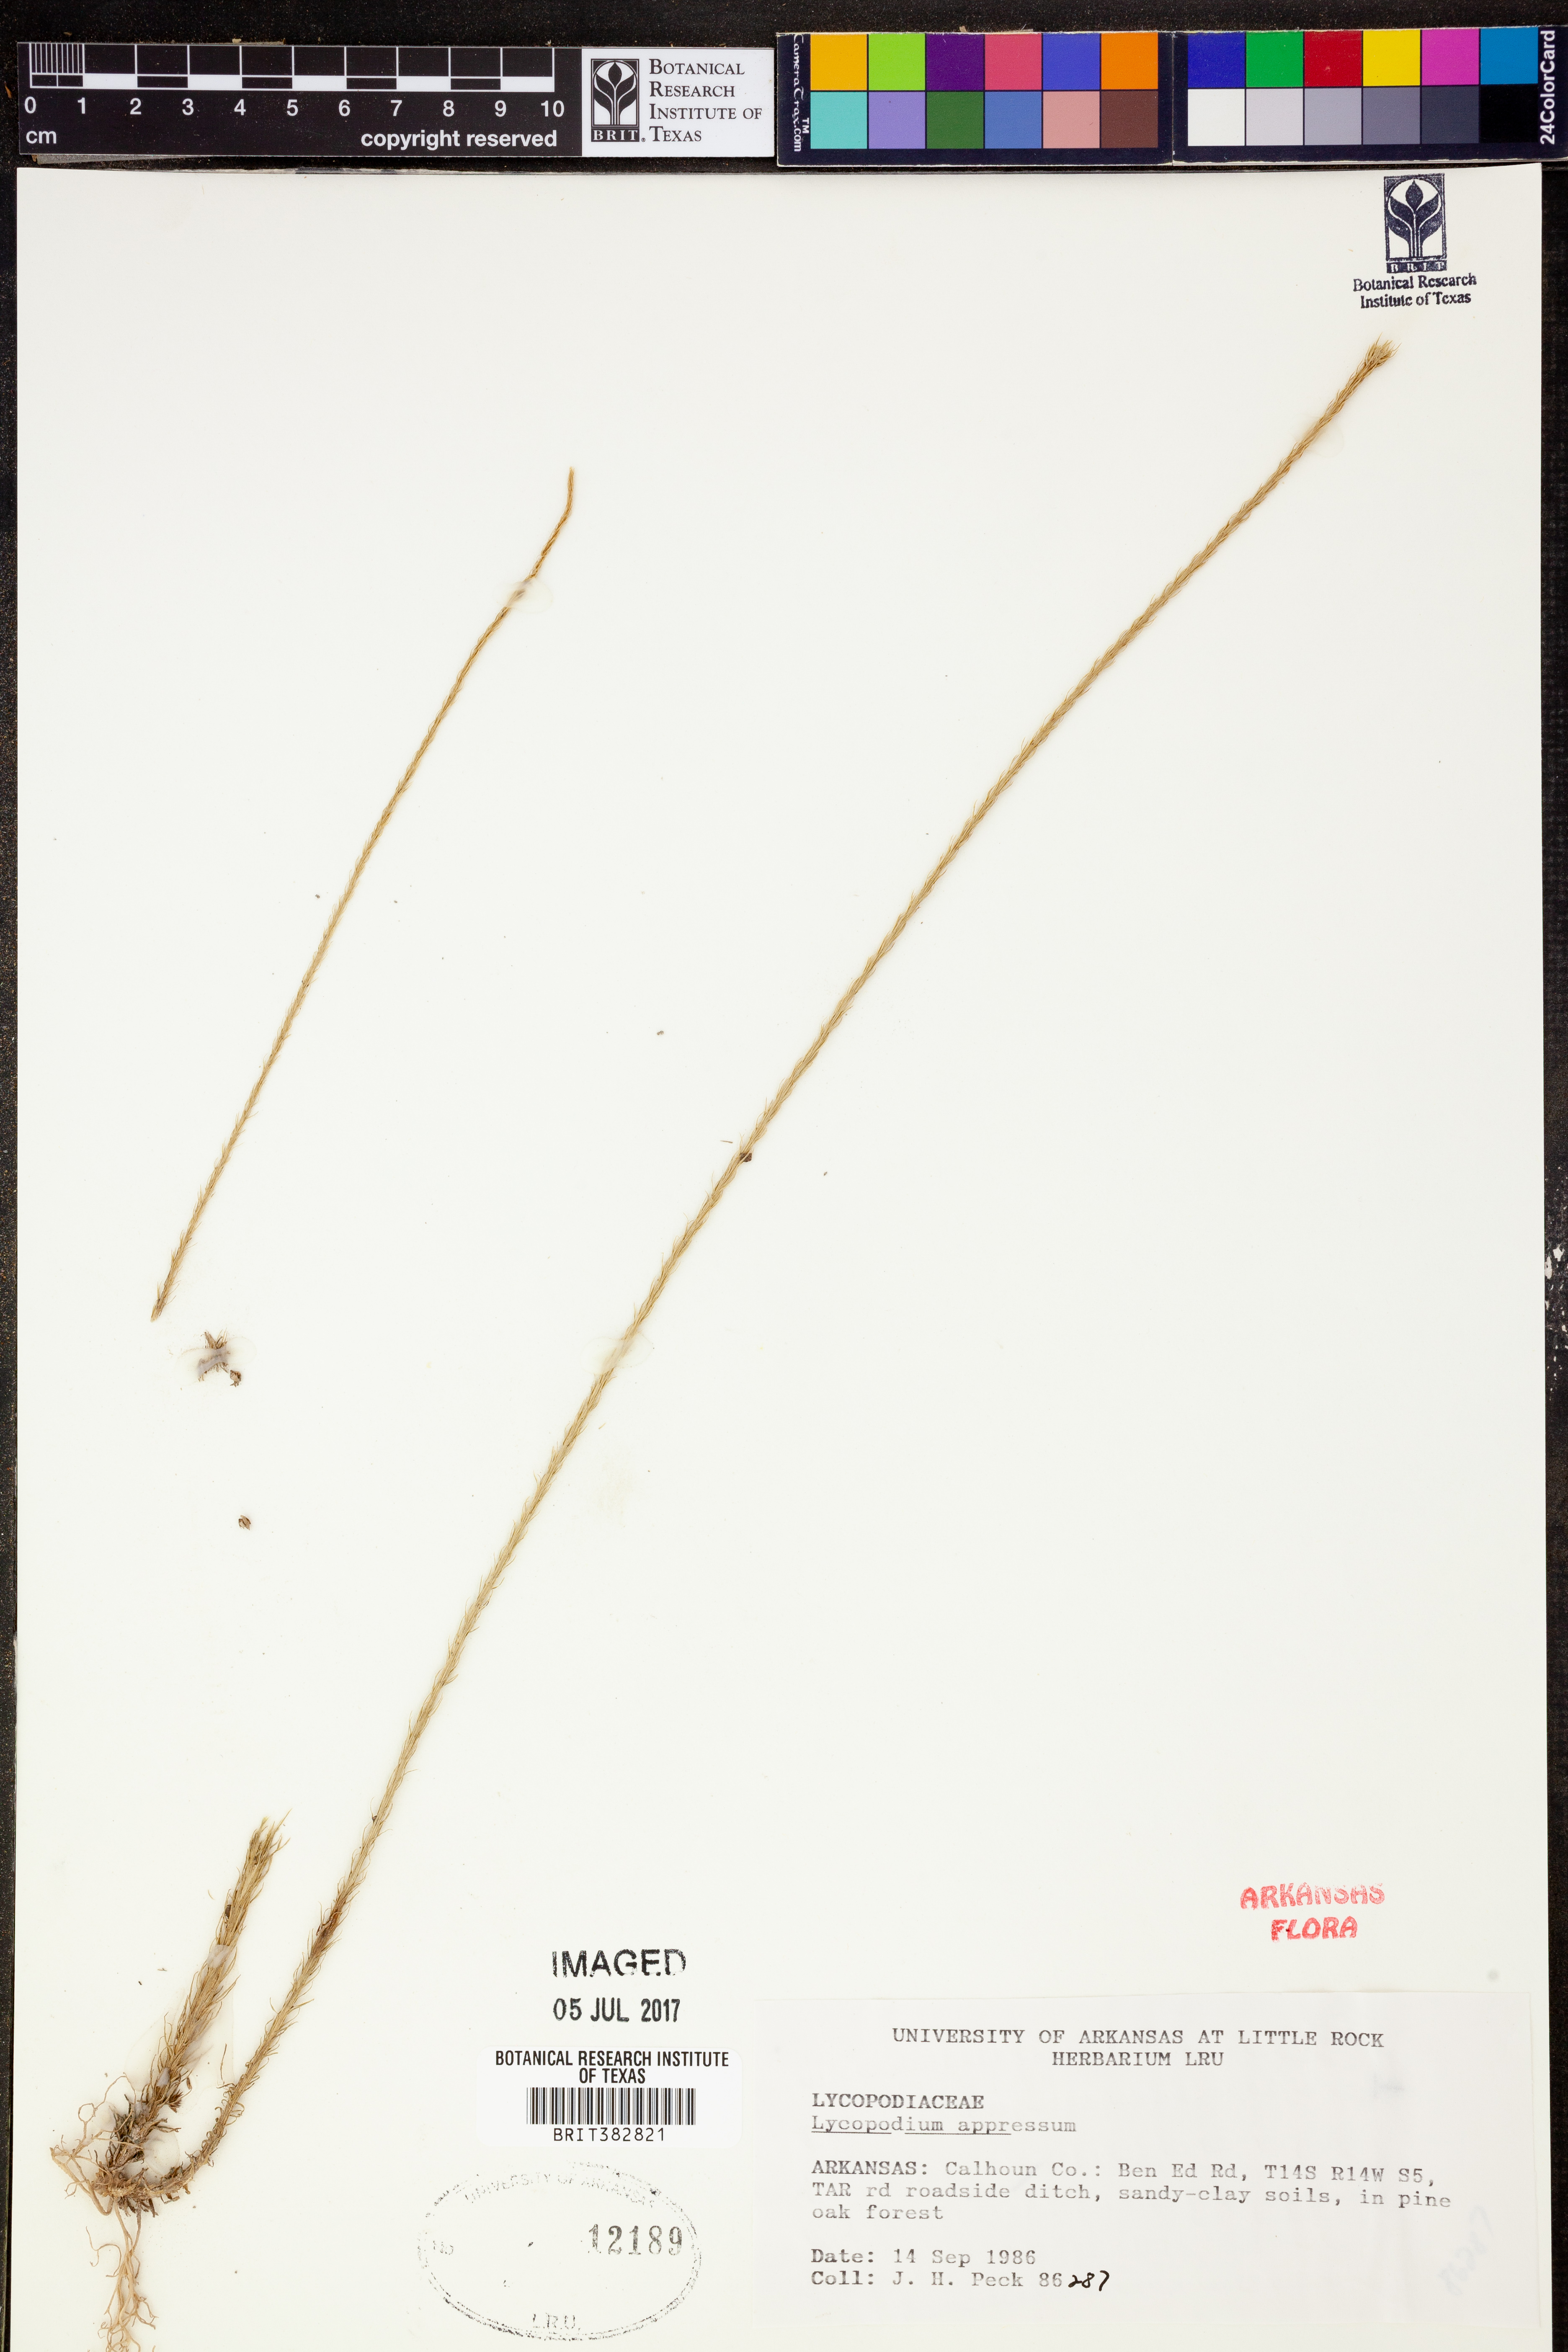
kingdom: Plantae
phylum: Tracheophyta
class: Lycopodiopsida
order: Lycopodiales
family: Lycopodiaceae
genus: Lycopodiella
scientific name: Lycopodiella appressa
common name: Appressed bog clubmoss
